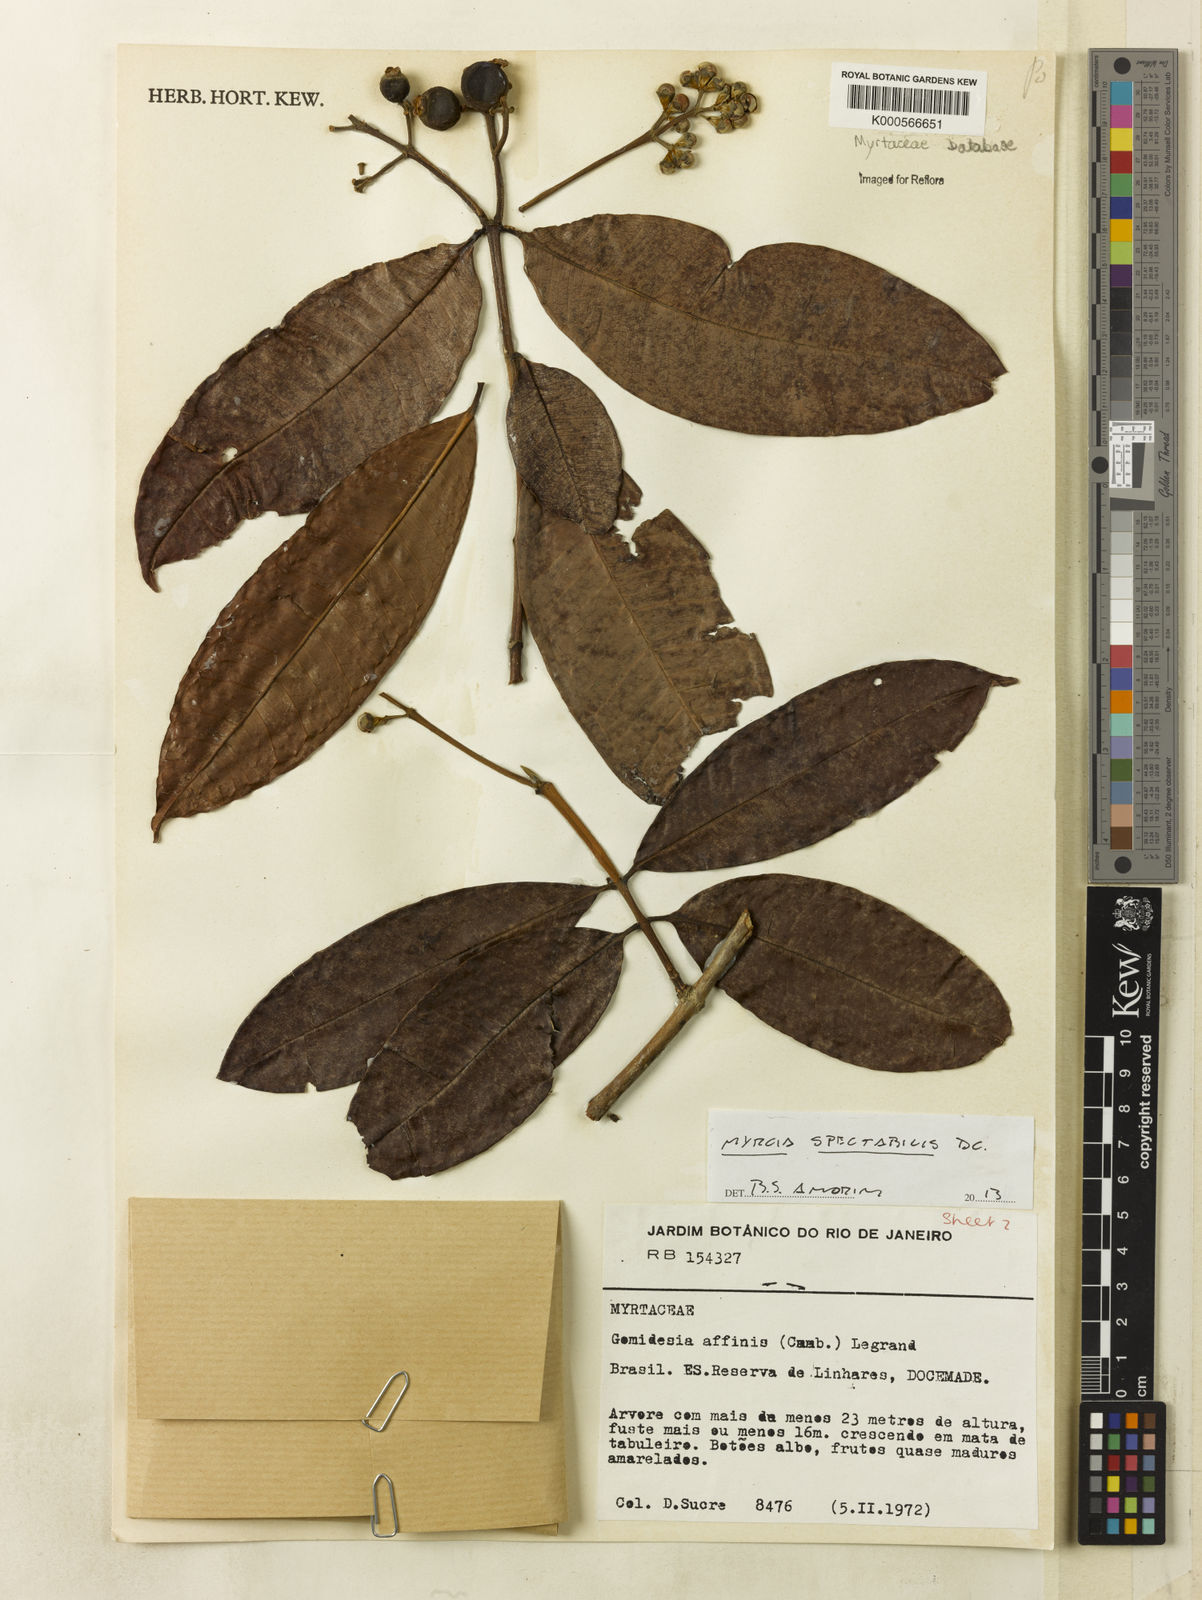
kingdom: Plantae
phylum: Tracheophyta
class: Magnoliopsida
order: Myrtales
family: Myrtaceae
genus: Myrcia
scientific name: Myrcia spectabilis
